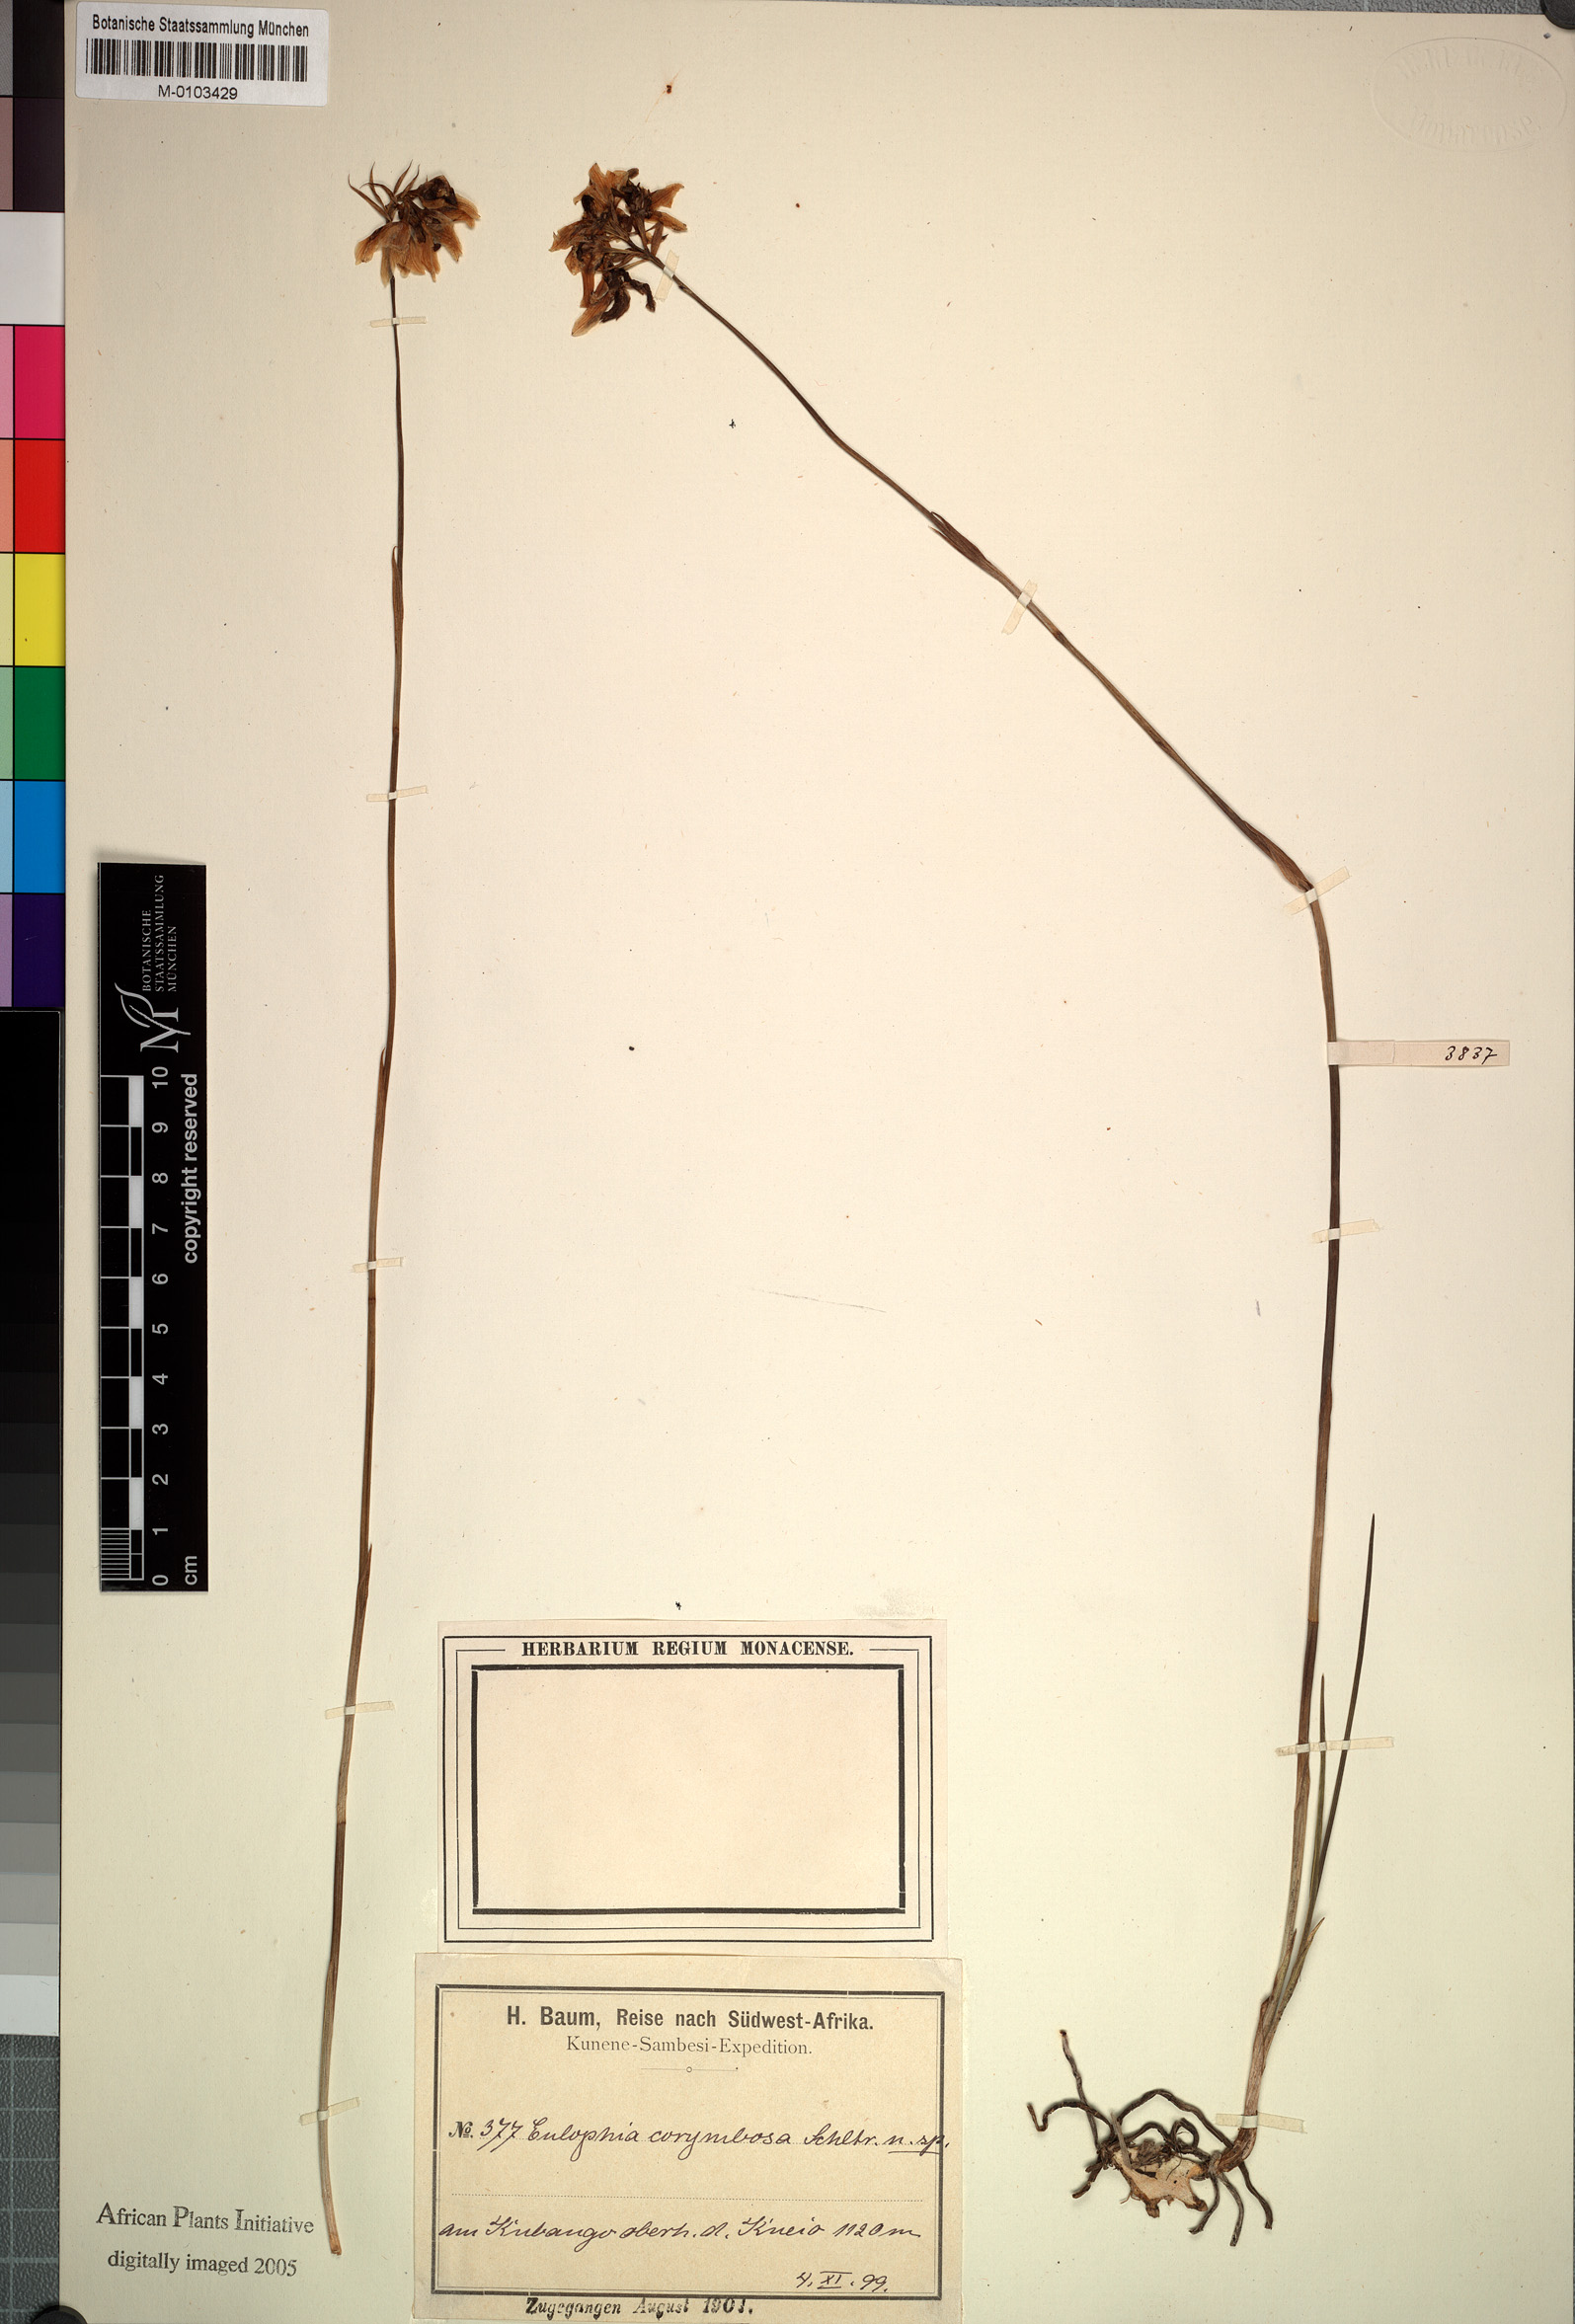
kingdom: Plantae
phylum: Tracheophyta
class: Liliopsida
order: Asparagales
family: Orchidaceae
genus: Eulophia
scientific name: Eulophia corymbosa
